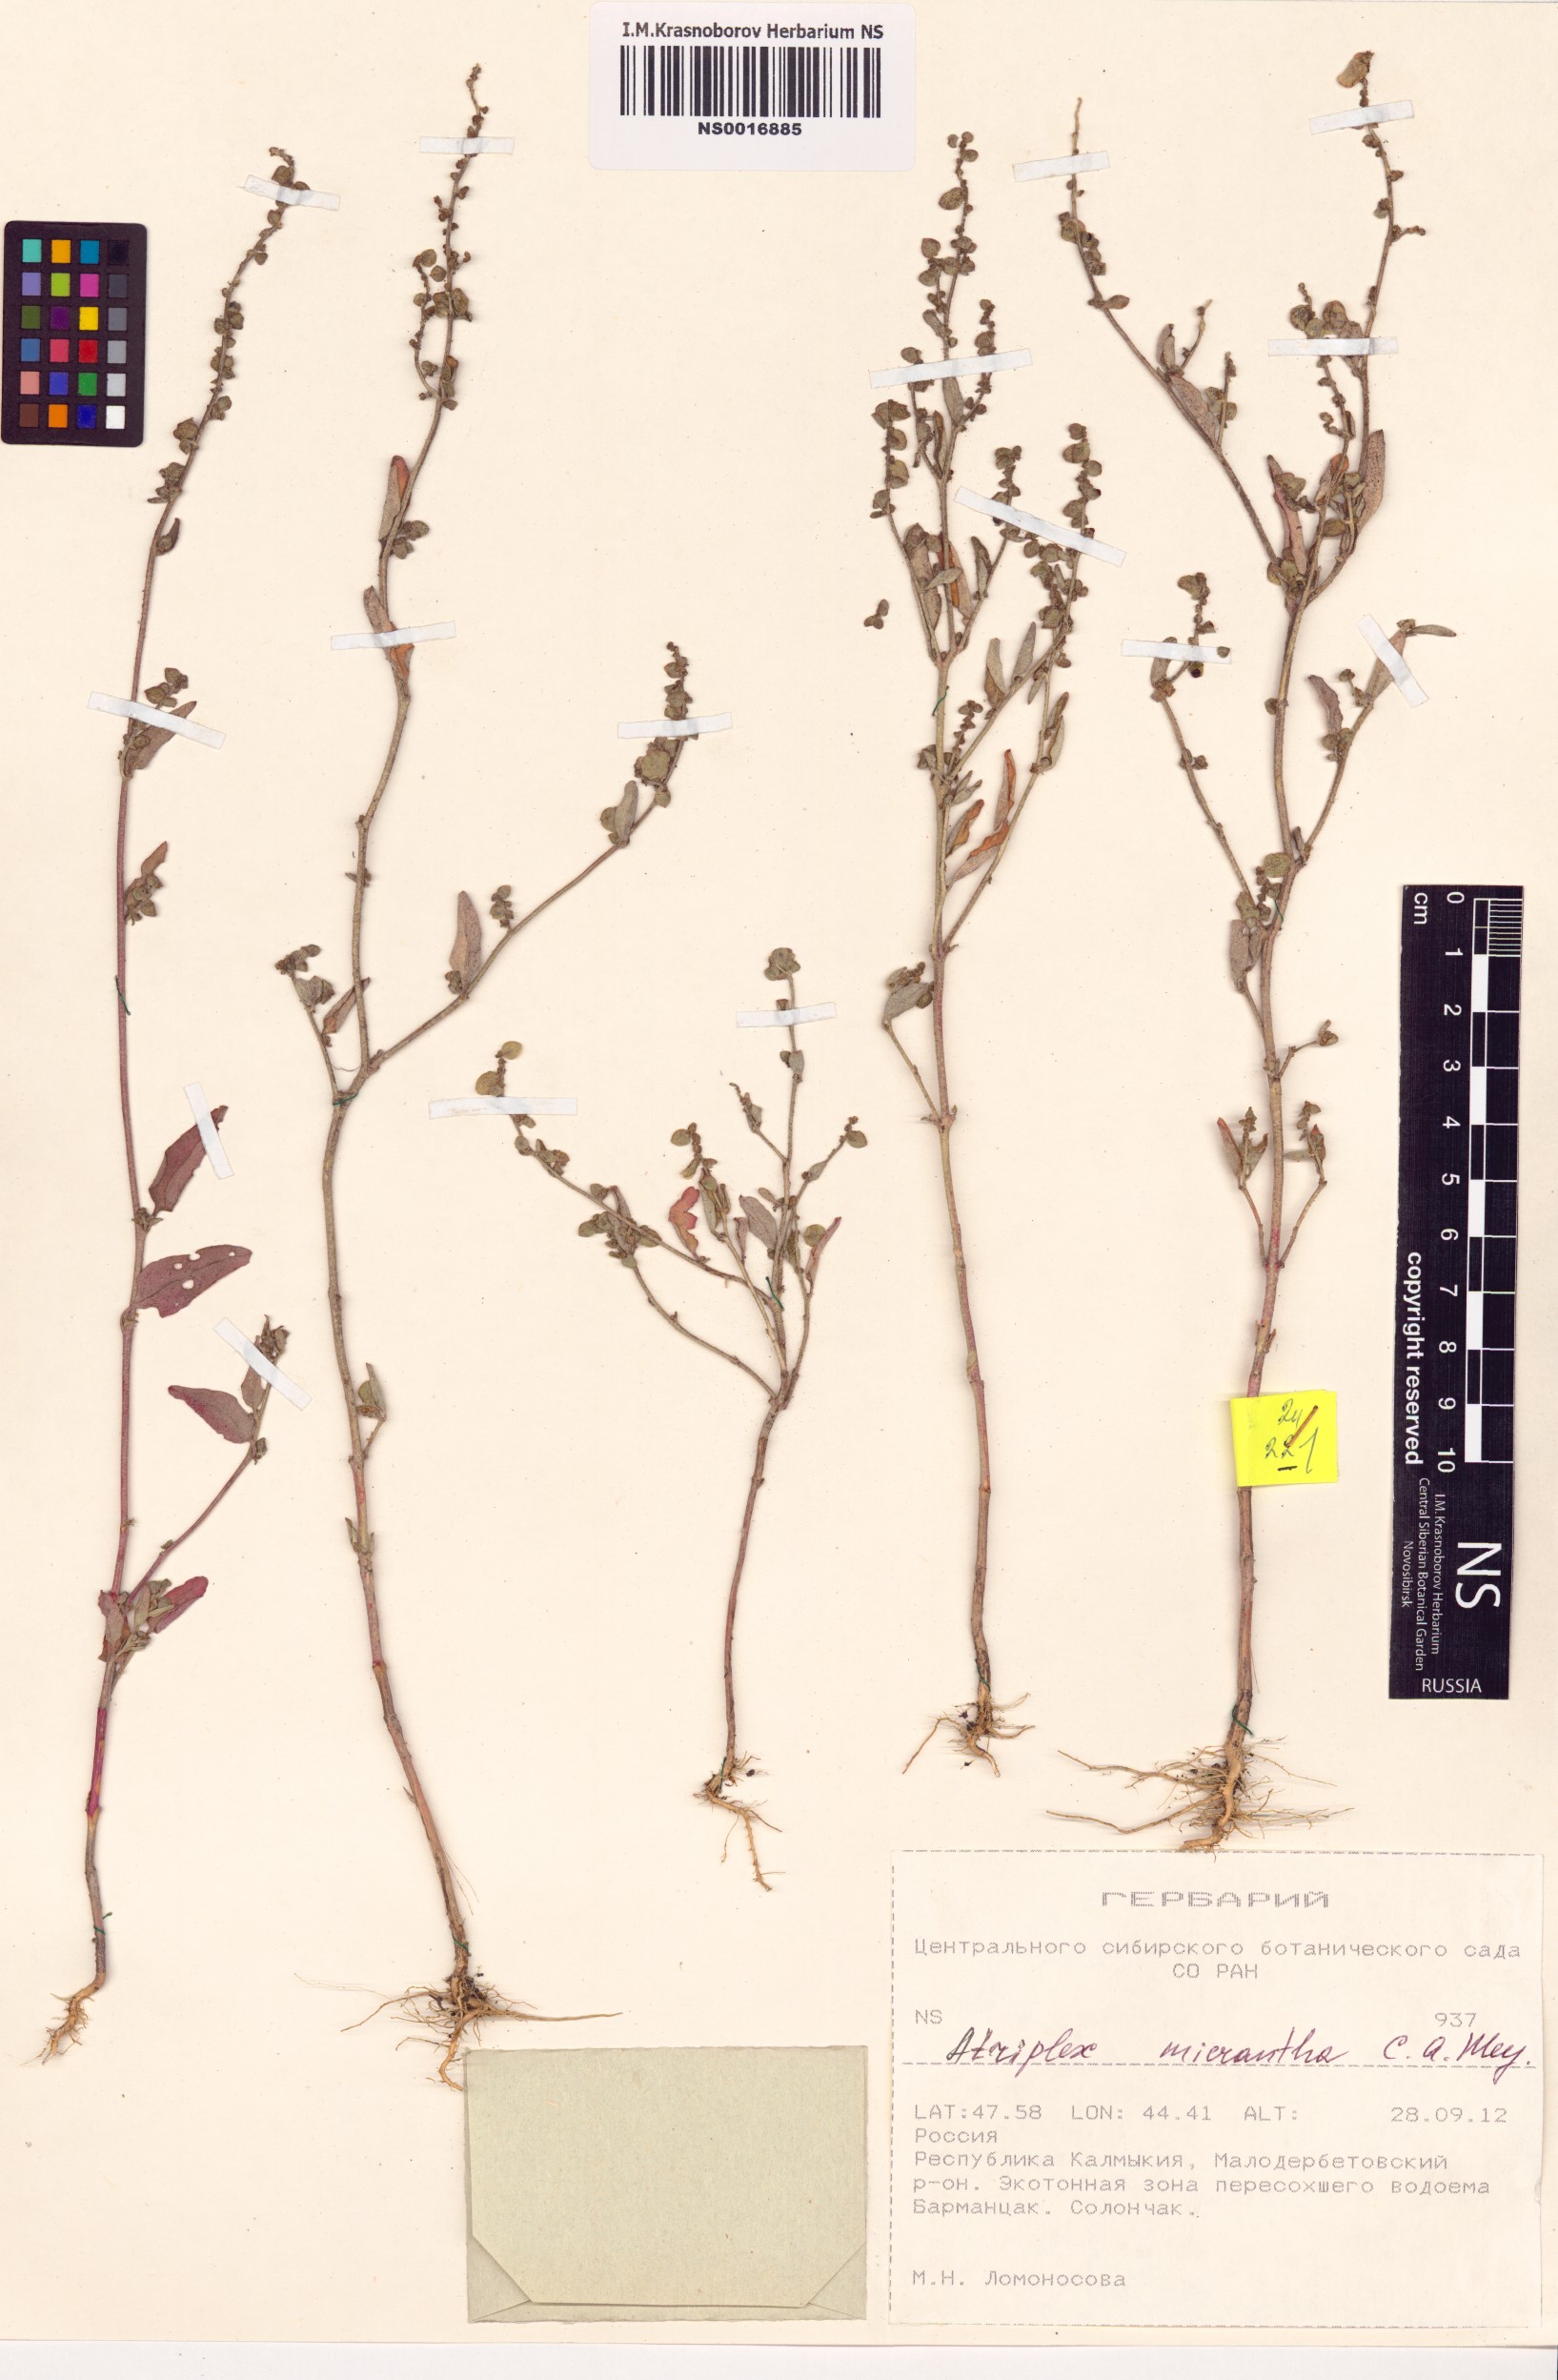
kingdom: Plantae
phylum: Tracheophyta
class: Magnoliopsida
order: Caryophyllales
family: Amaranthaceae
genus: Atriplex
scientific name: Atriplex micrantha
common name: Twoscale saltbush
